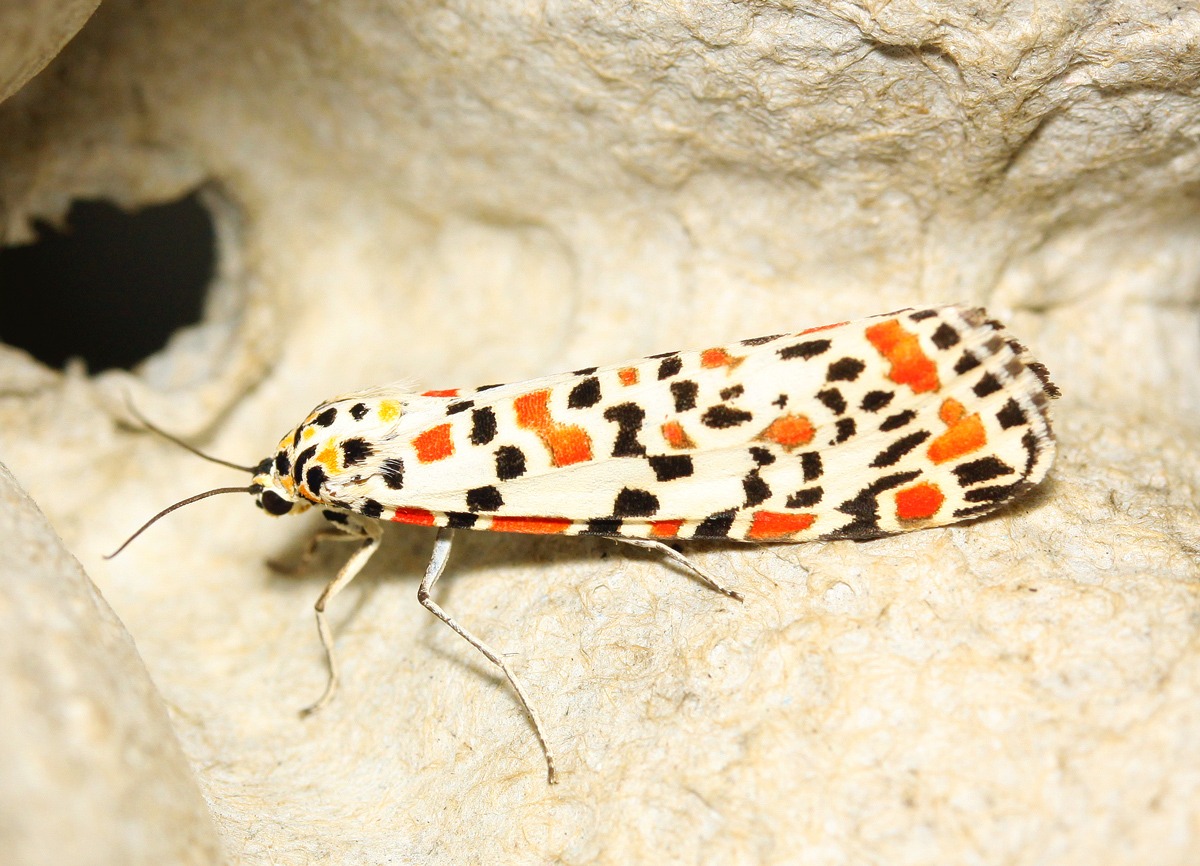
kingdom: Animalia
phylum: Arthropoda
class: Insecta
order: Lepidoptera
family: Erebidae
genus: Utetheisa
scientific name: Utetheisa pulchella
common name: Pragtbjørn
